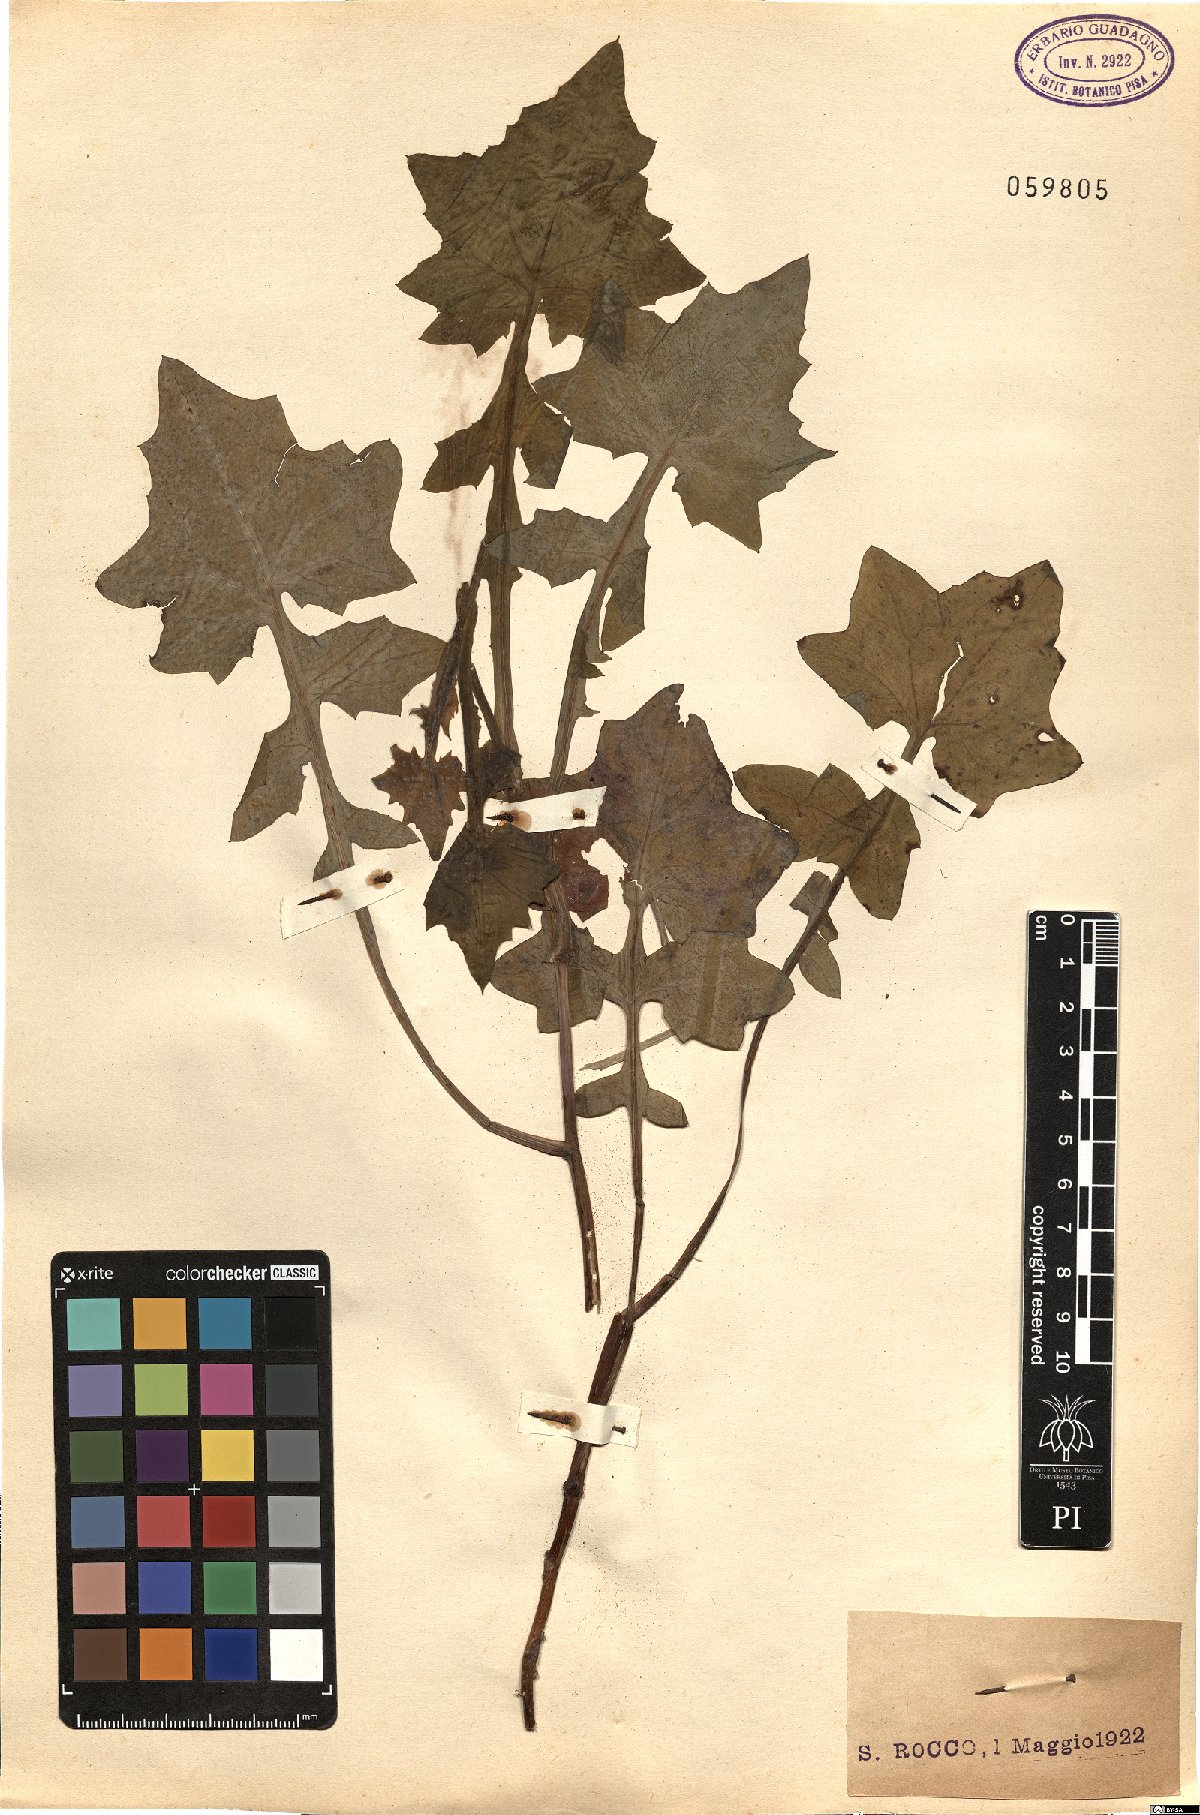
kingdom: Plantae
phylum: Tracheophyta
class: Magnoliopsida
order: Asterales
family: Asteraceae
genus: Mycelis
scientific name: Mycelis muralis
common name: Wall lettuce
